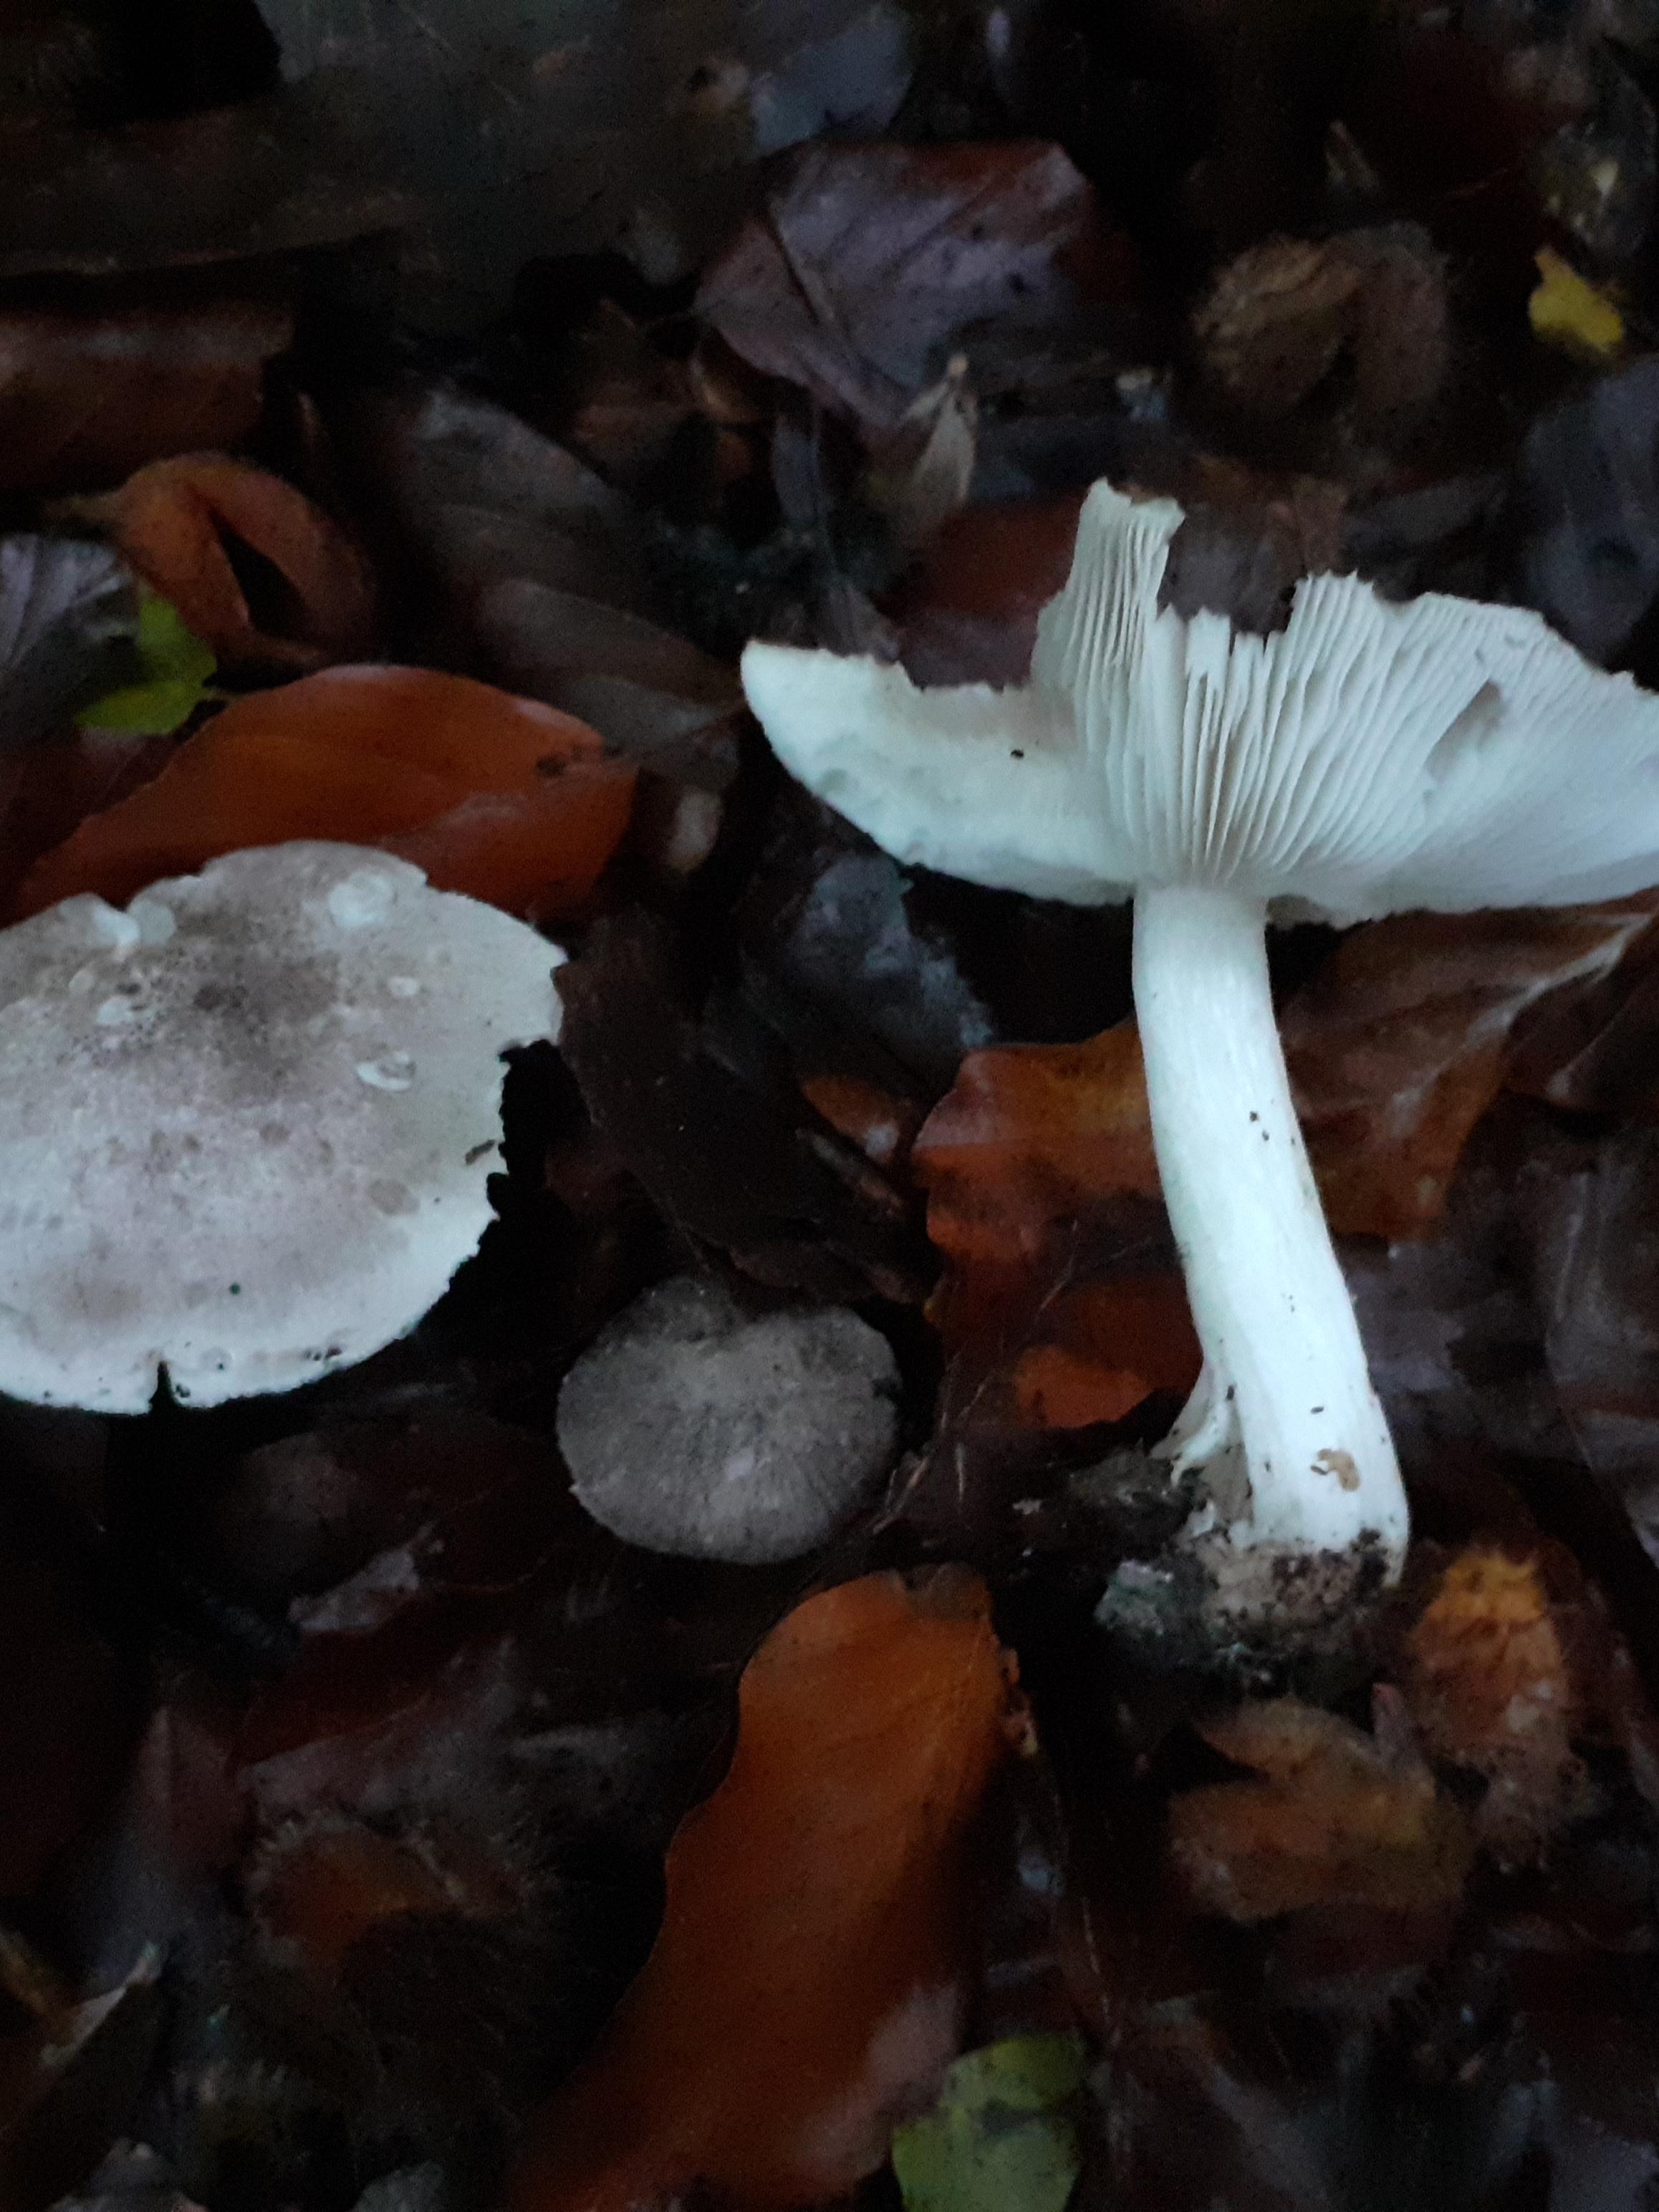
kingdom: Fungi
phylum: Basidiomycota
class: Agaricomycetes
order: Agaricales
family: Tricholomataceae
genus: Tricholoma
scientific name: Tricholoma scalpturatum
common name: gulplettet ridderhat
